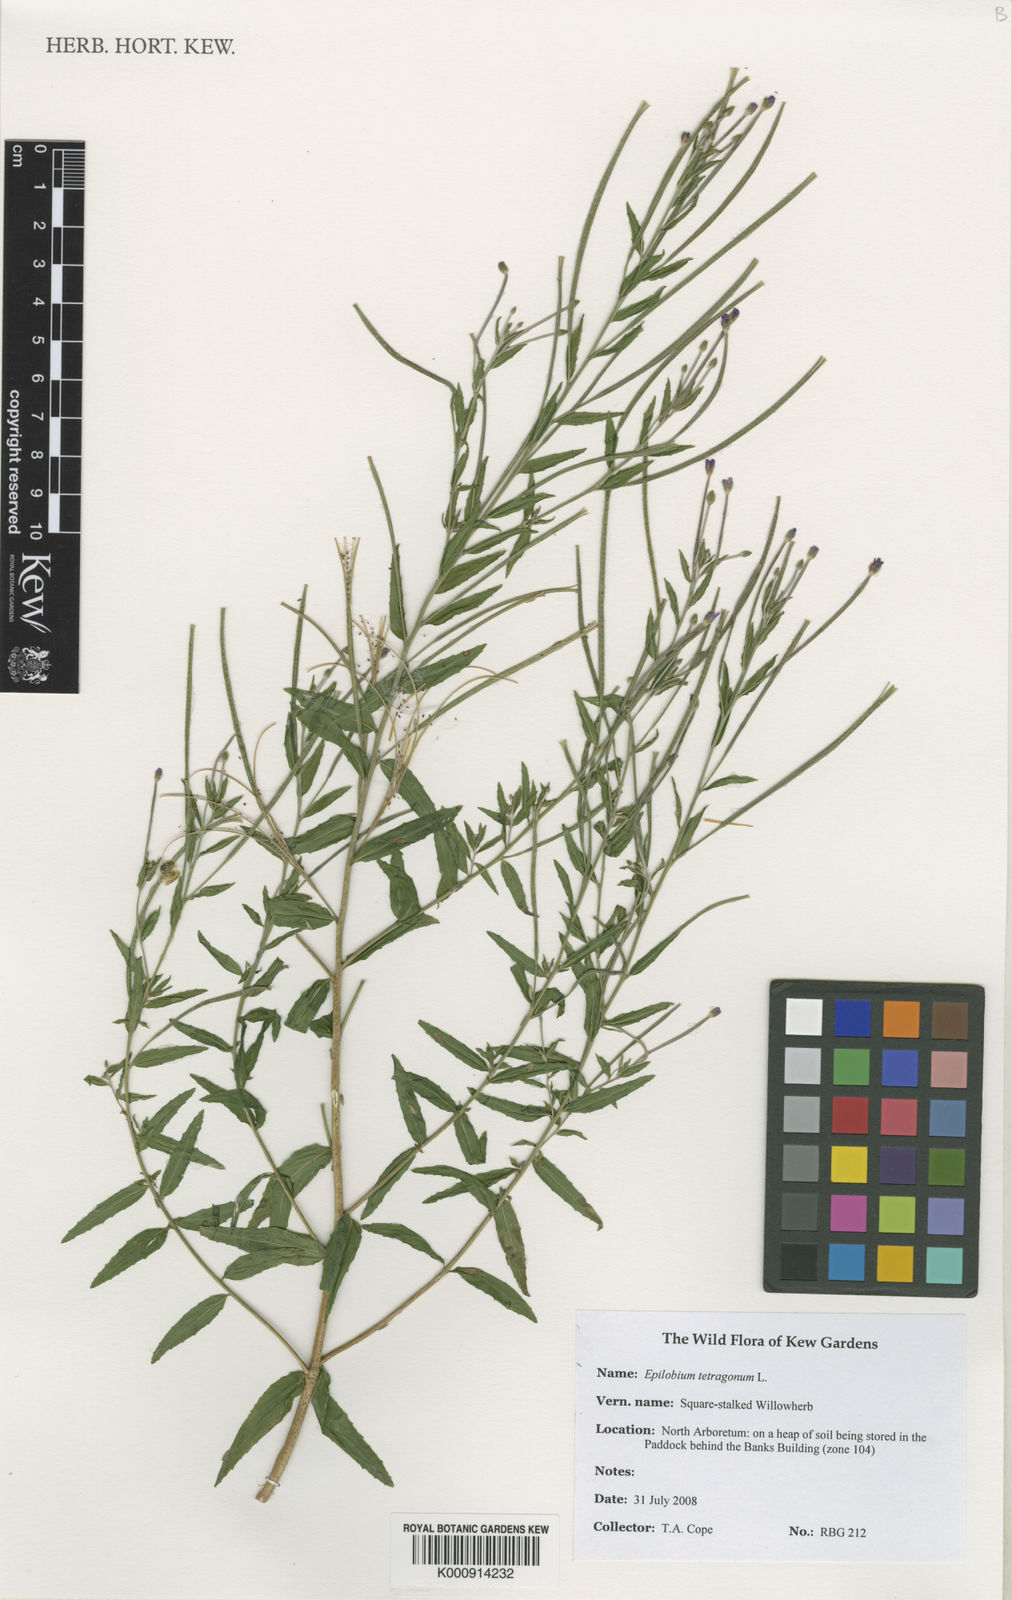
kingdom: Plantae
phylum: Tracheophyta
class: Magnoliopsida
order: Myrtales
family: Onagraceae
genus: Epilobium
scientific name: Epilobium tetragonum
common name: Square-stemmed willowherb
